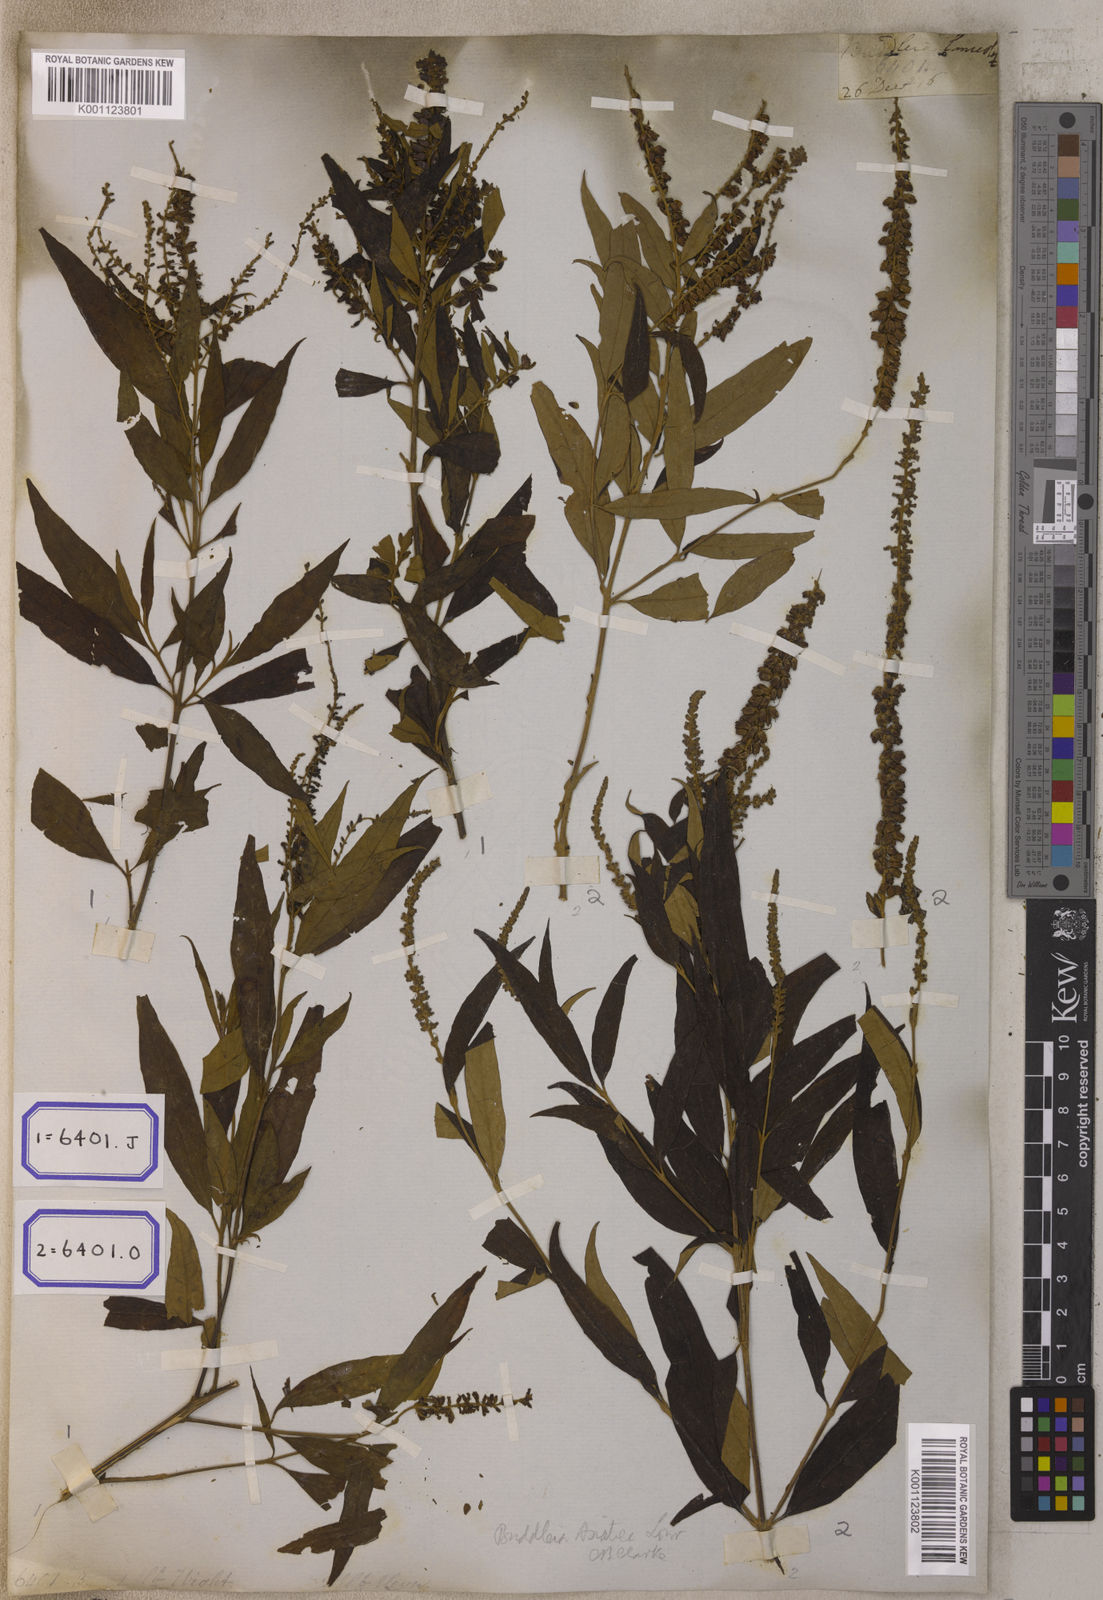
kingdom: Plantae
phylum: Tracheophyta
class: Magnoliopsida
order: Lamiales
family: Scrophulariaceae
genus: Buddleja
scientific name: Buddleja
